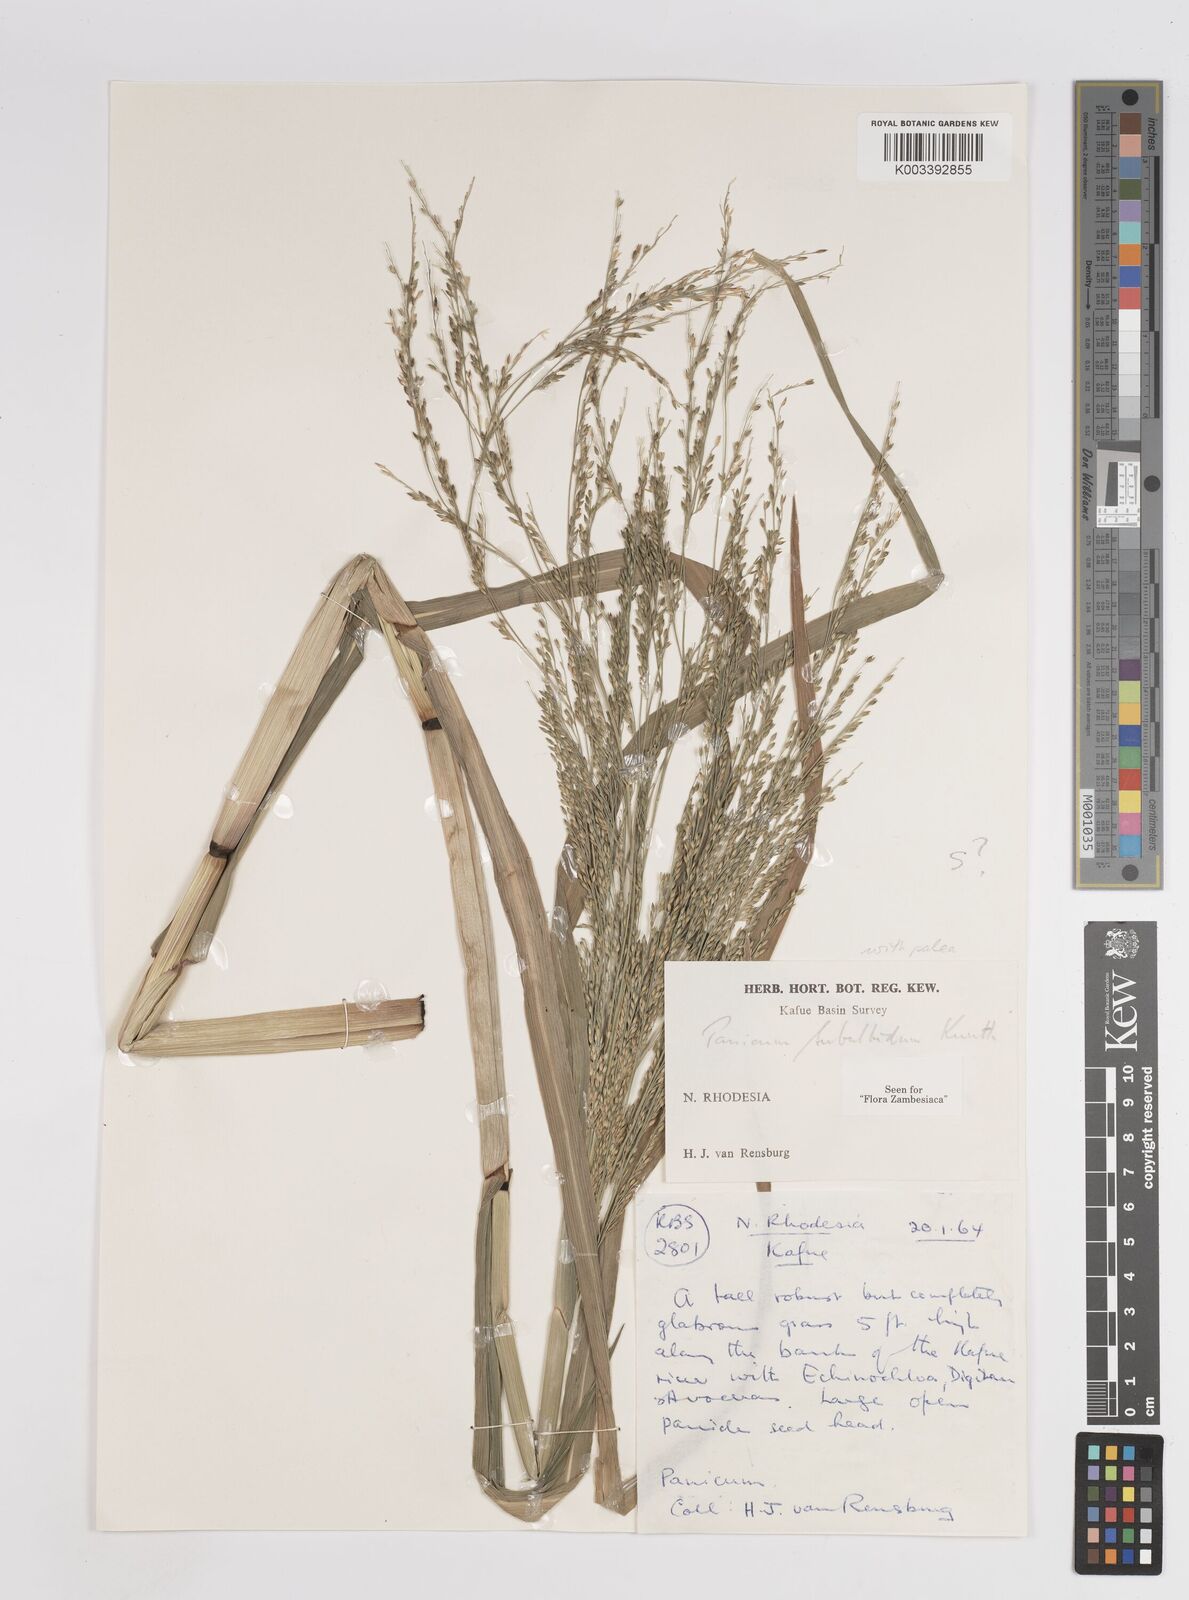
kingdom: Plantae
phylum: Tracheophyta
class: Liliopsida
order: Poales
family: Poaceae
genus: Panicum
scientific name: Panicum subalbidum
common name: Elbow buffalo grass
